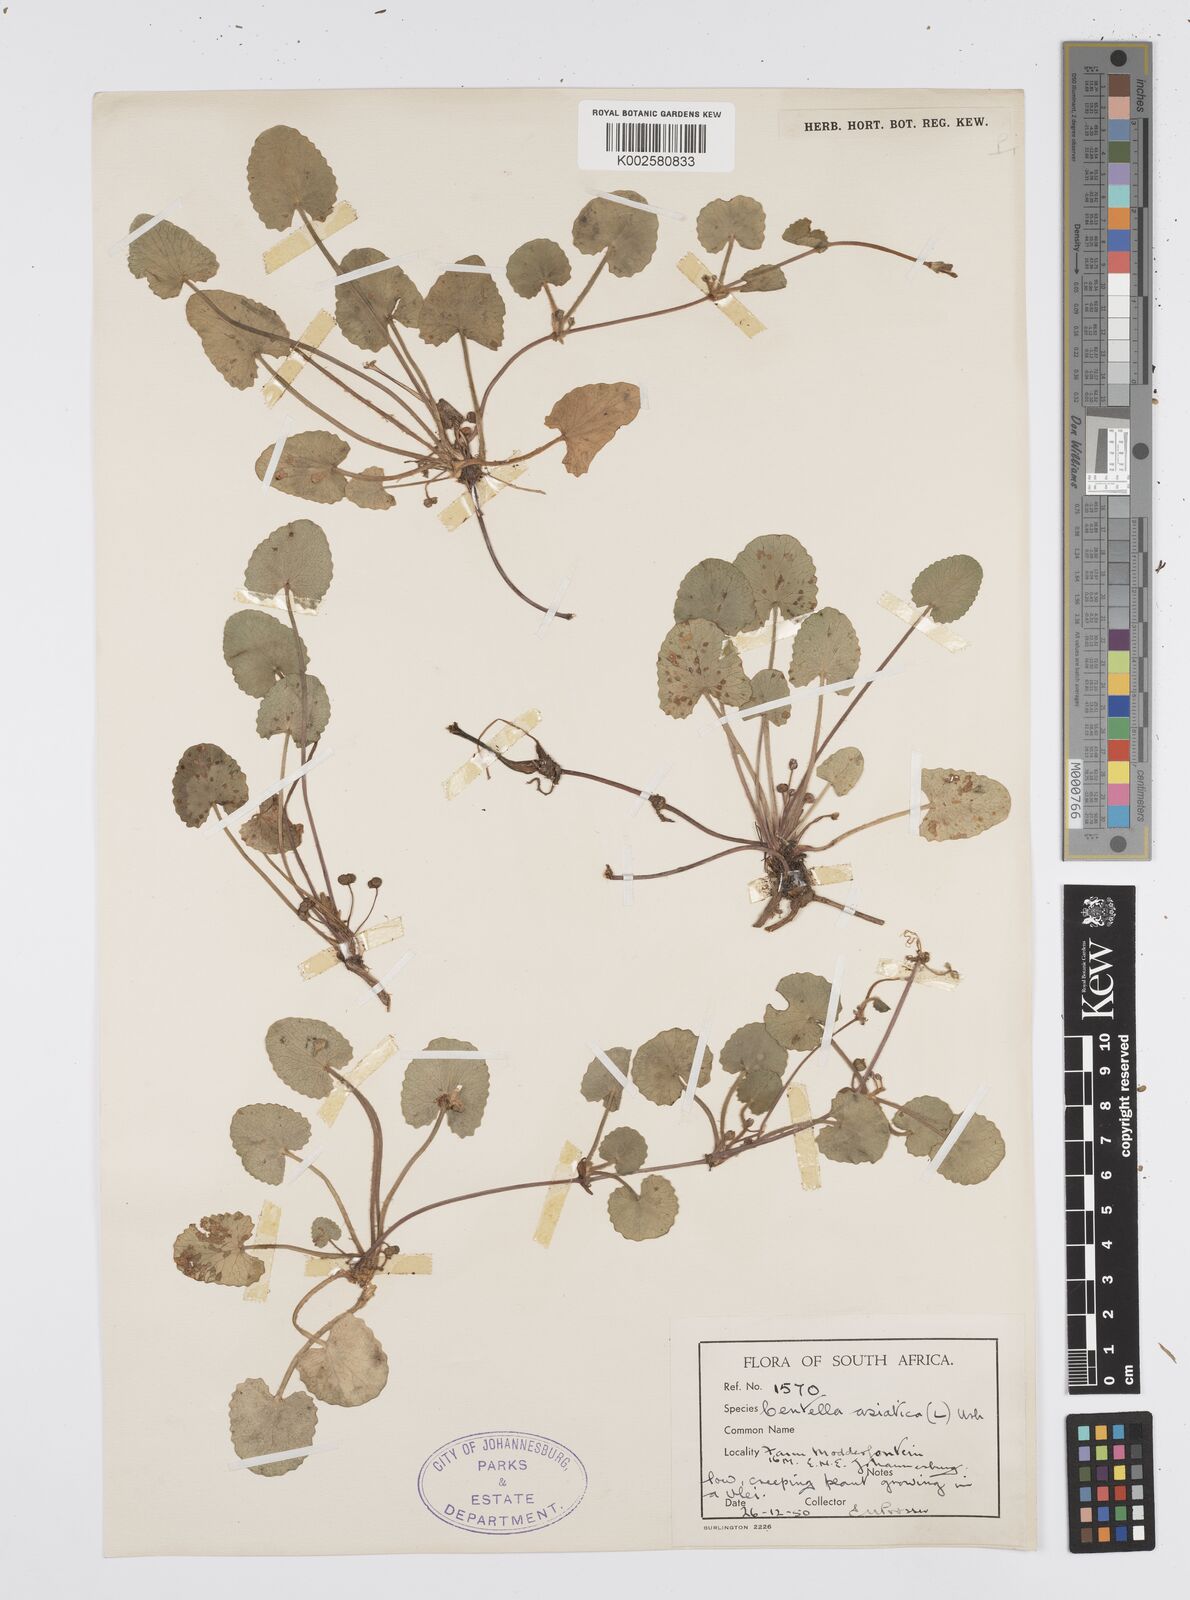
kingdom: Plantae
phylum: Tracheophyta
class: Magnoliopsida
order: Apiales
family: Apiaceae
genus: Centella
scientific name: Centella coriacea
